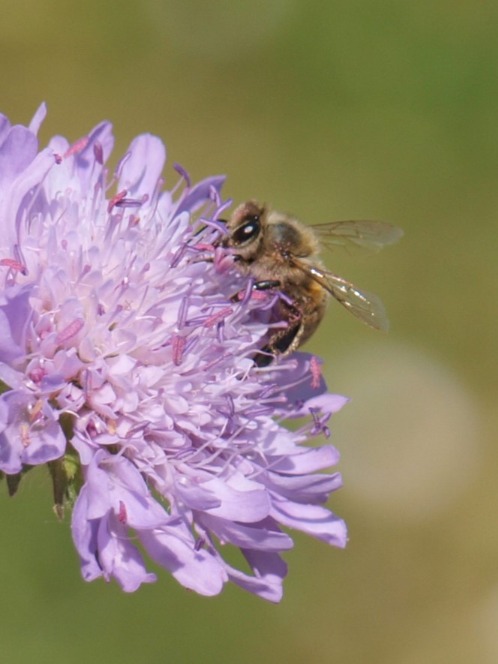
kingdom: Animalia
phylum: Arthropoda
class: Insecta
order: Hymenoptera
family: Apidae
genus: Apis
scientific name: Apis mellifera
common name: Honningbi
